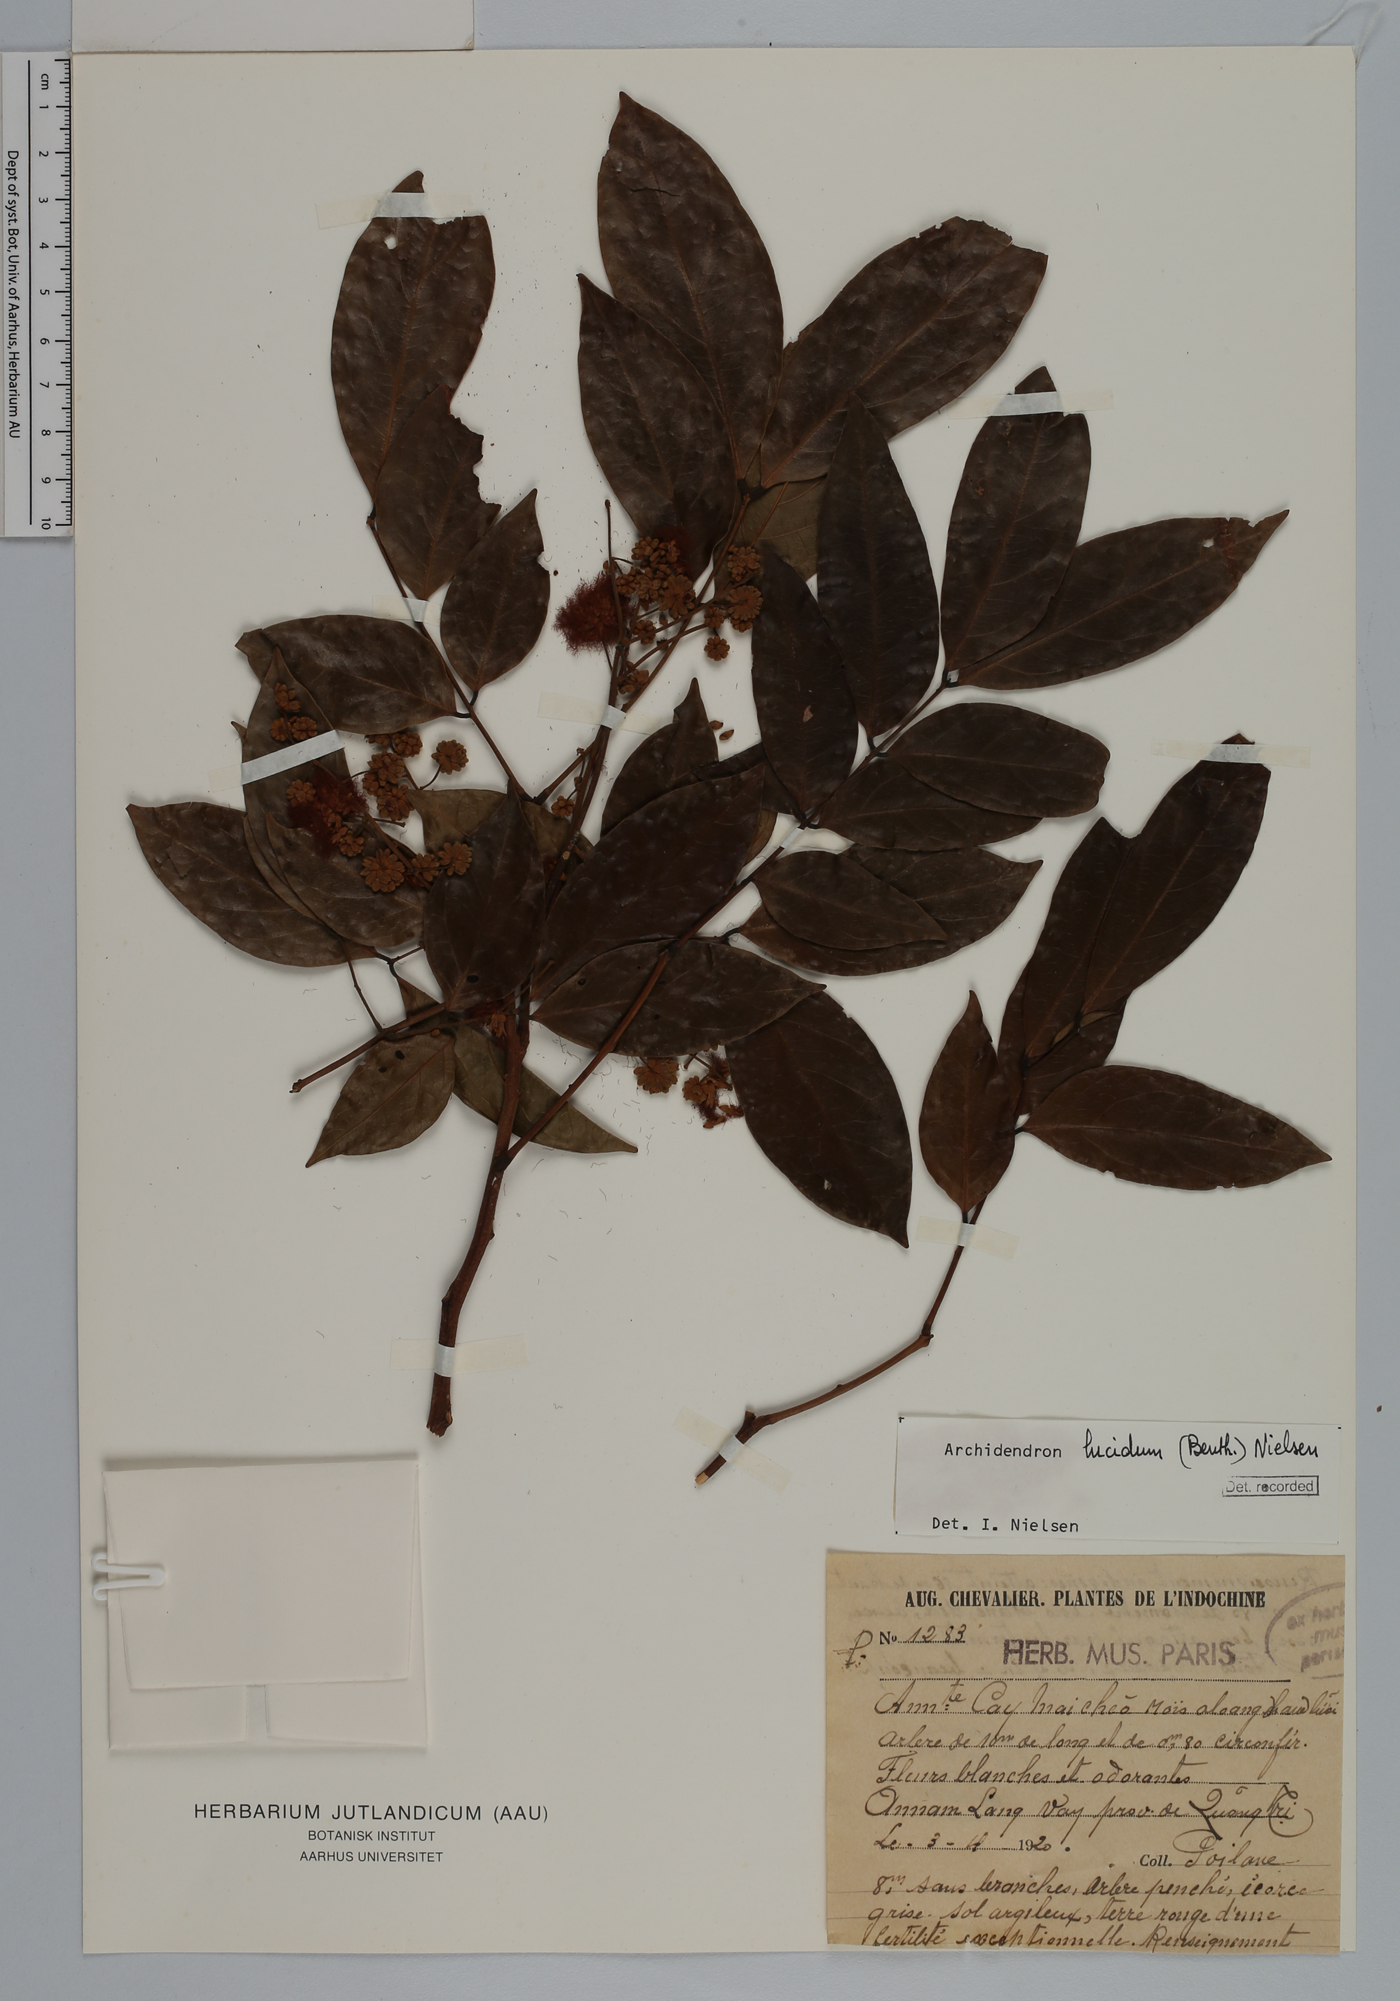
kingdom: Plantae
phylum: Tracheophyta
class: Magnoliopsida
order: Fabales
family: Fabaceae
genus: Archidendron
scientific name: Archidendron lucidum
